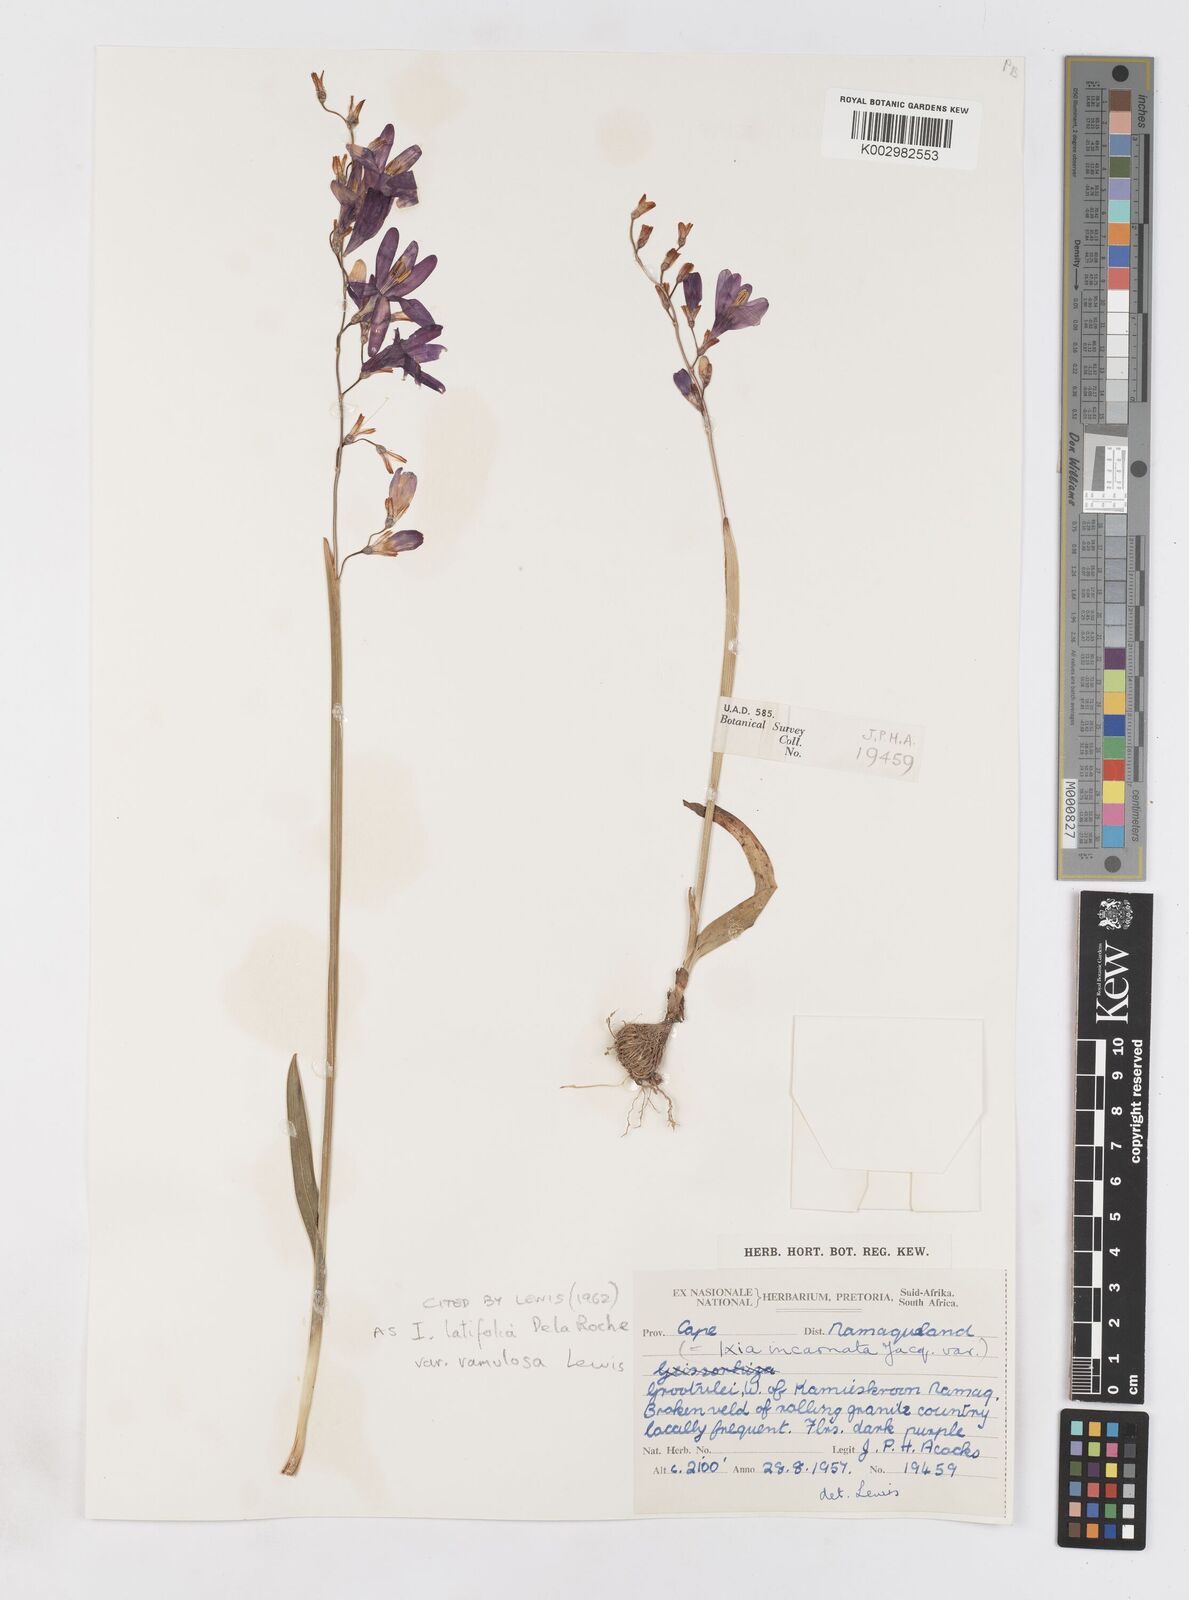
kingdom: Plantae
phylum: Tracheophyta
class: Liliopsida
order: Asparagales
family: Iridaceae
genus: Ixia
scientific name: Ixia ramulosa
